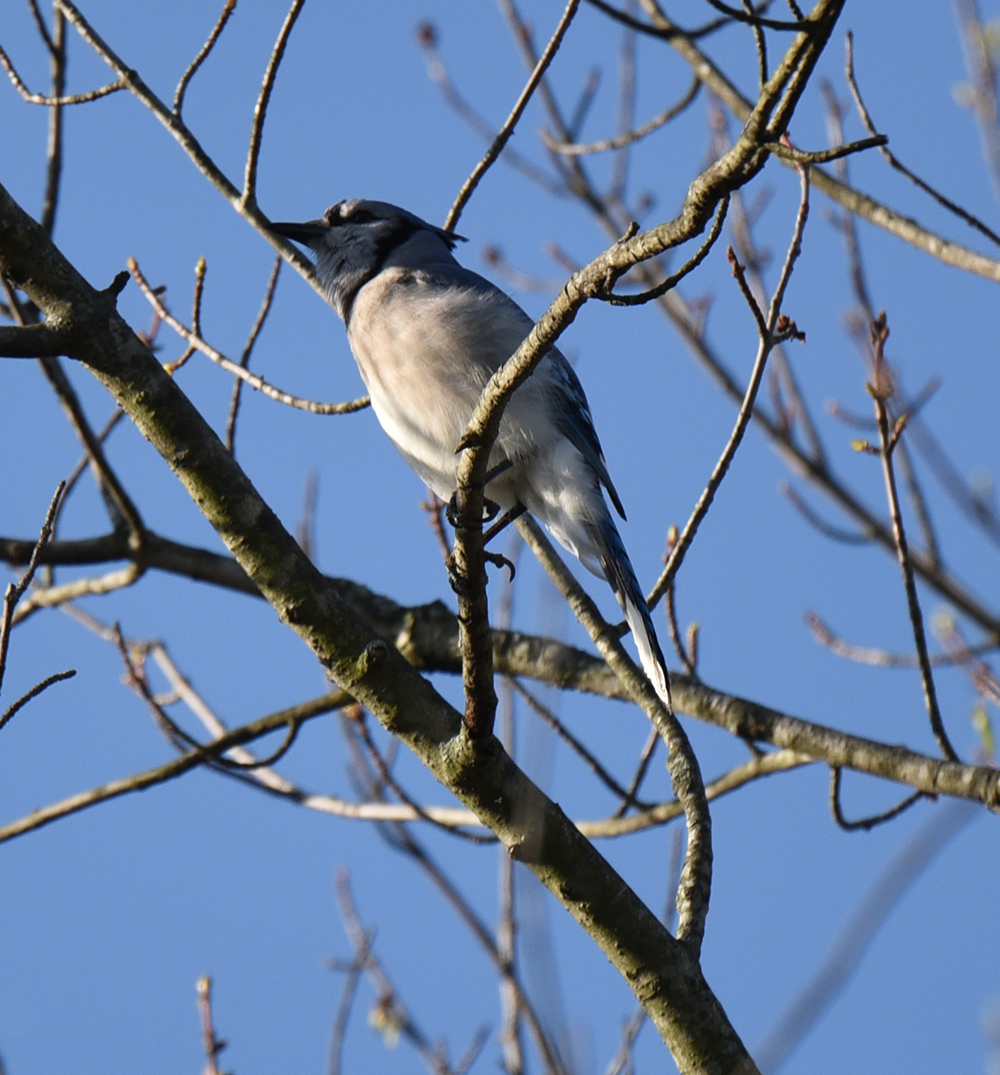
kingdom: Animalia
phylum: Chordata
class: Aves
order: Passeriformes
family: Corvidae
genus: Cyanocitta
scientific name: Cyanocitta cristata
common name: Blue jay
